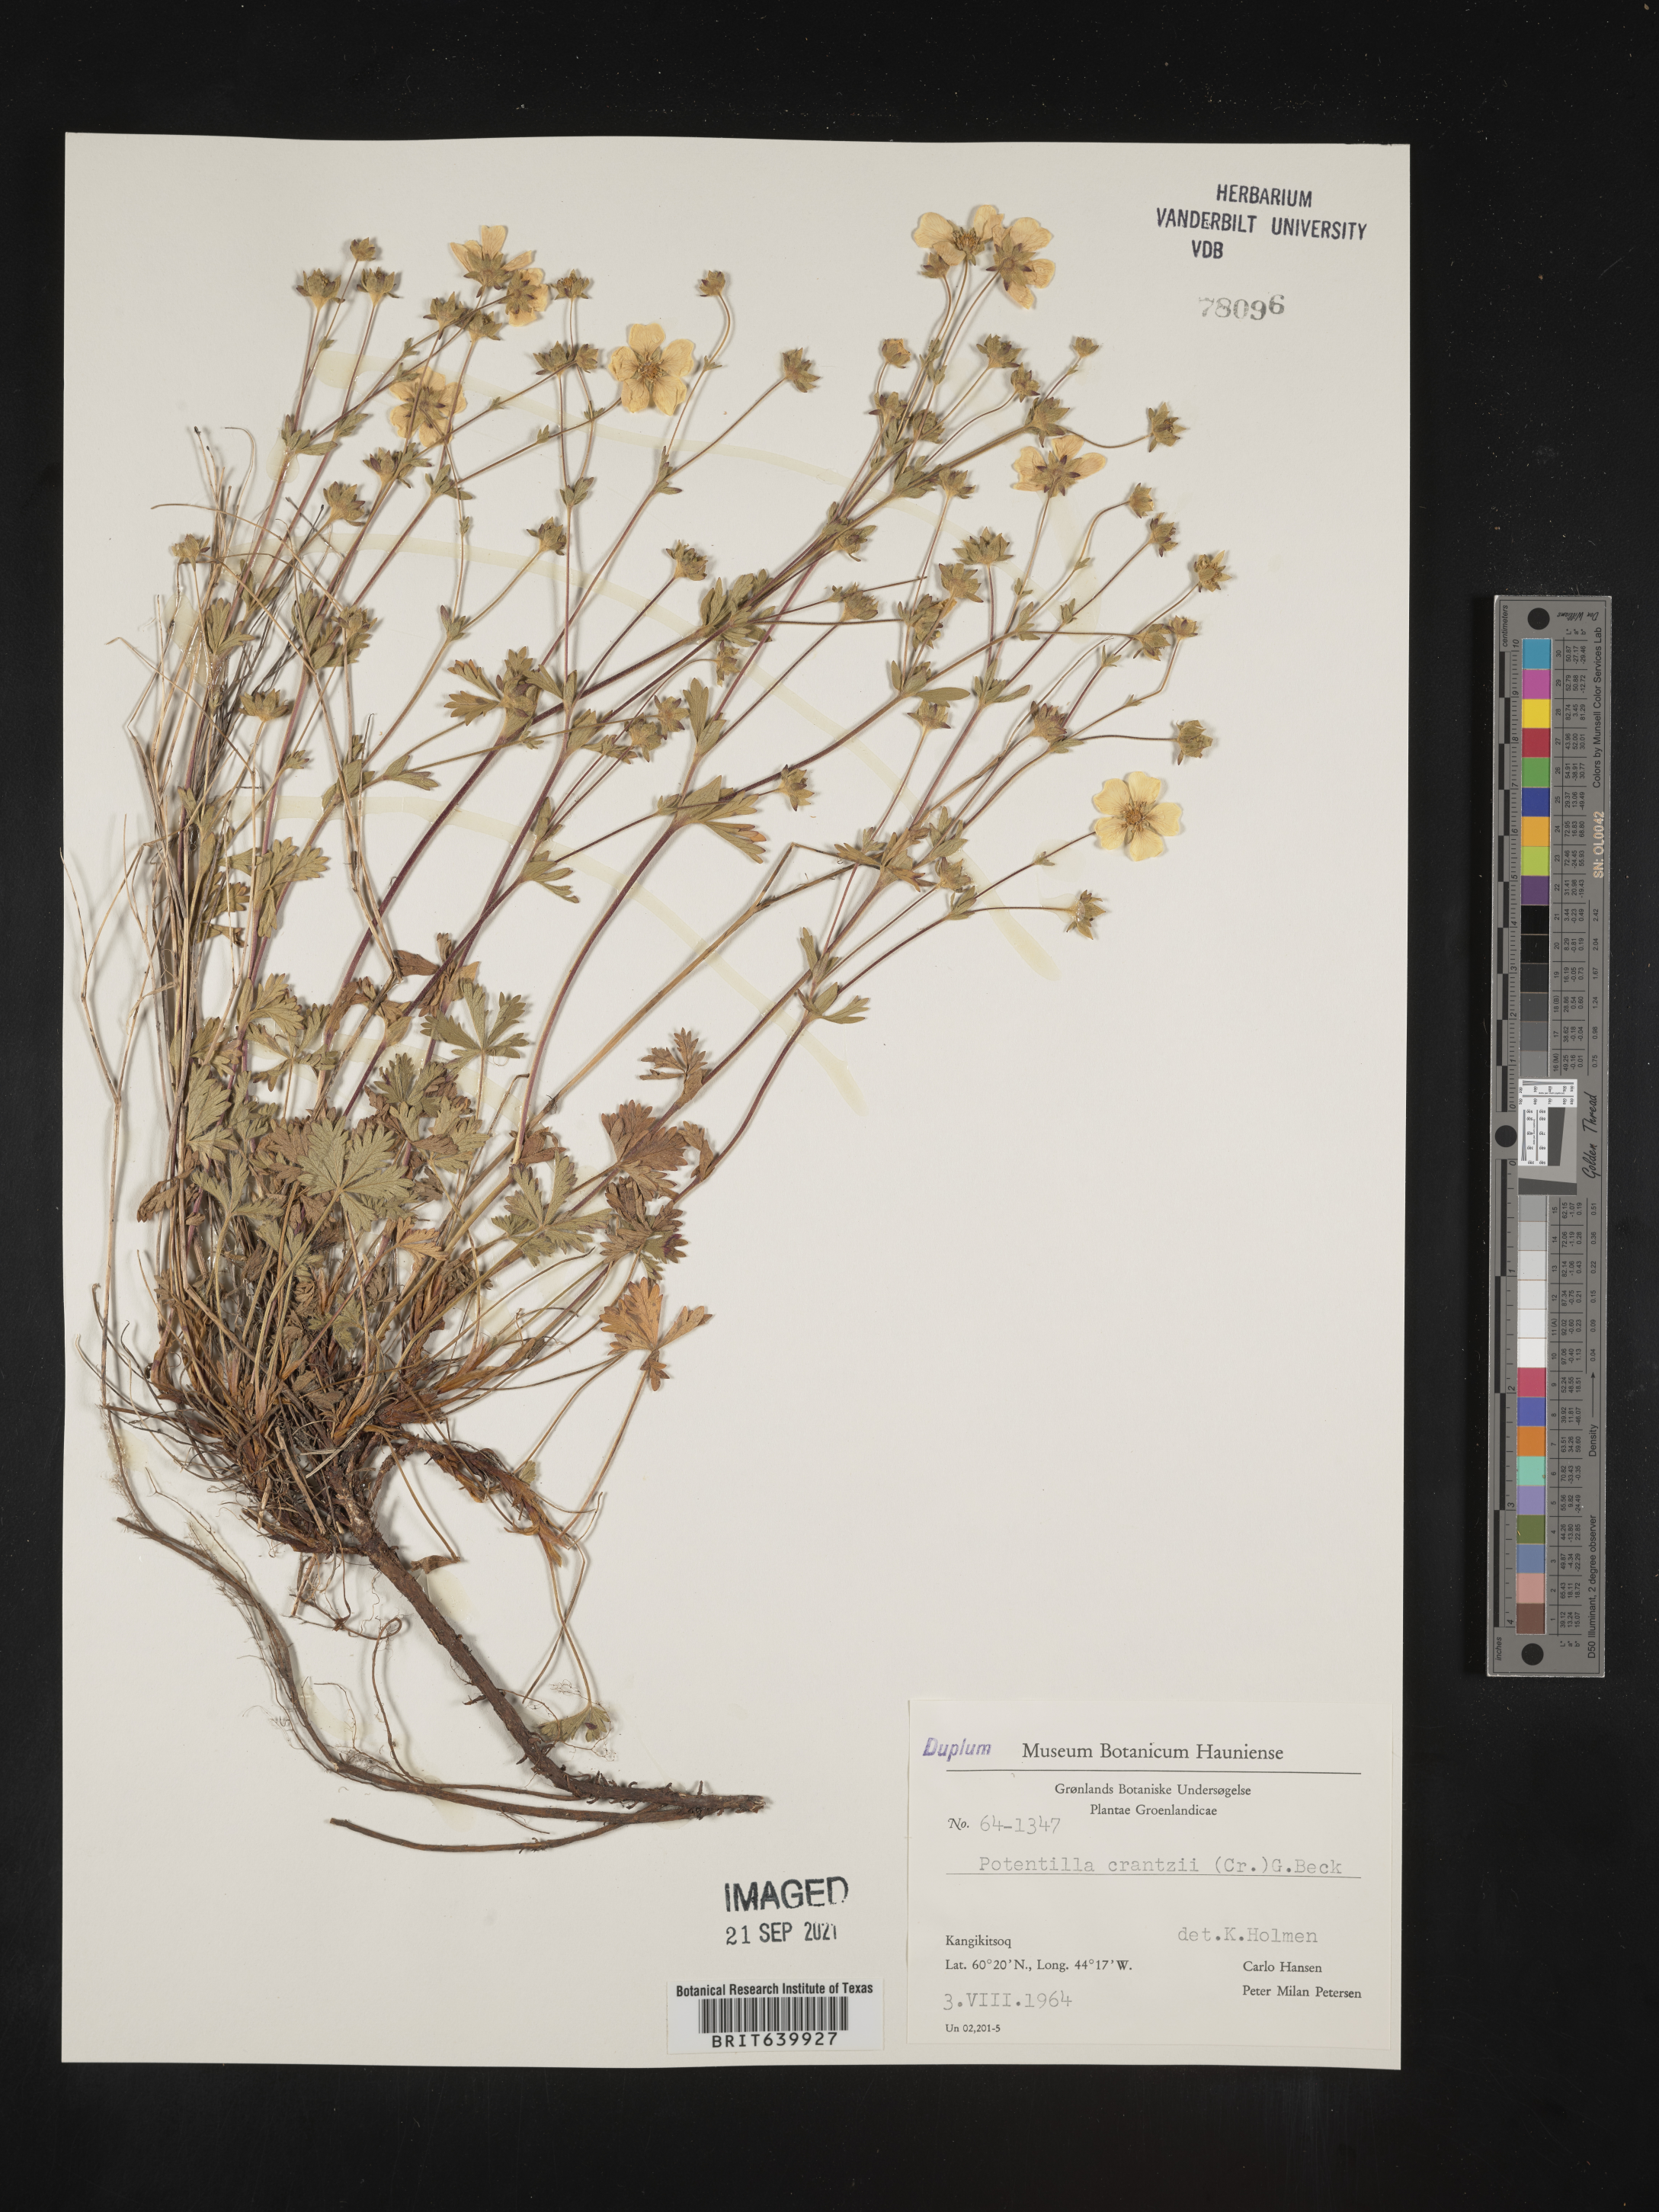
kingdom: Plantae
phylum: Tracheophyta
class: Magnoliopsida
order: Rosales
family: Rosaceae
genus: Potentilla
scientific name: Potentilla
